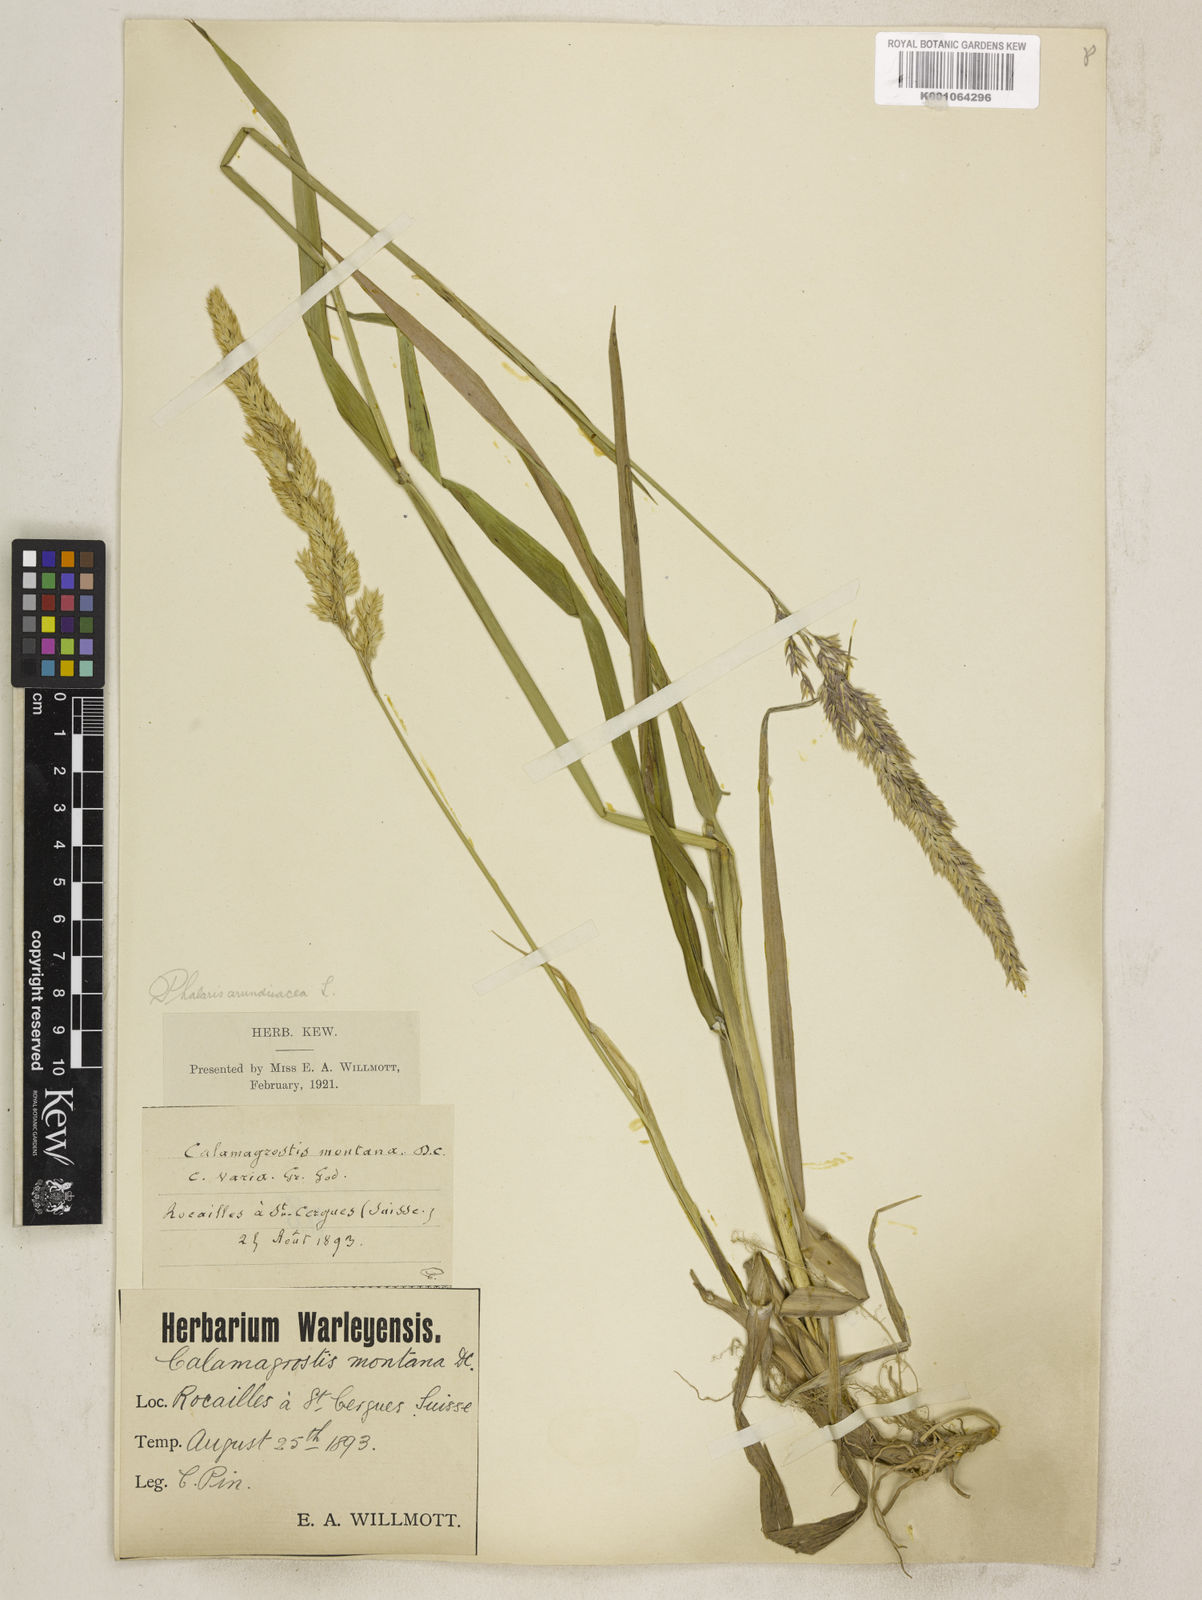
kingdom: Plantae
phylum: Tracheophyta
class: Liliopsida
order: Poales
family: Poaceae
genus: Phalaris
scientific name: Phalaris arundinacea
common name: Reed canary-grass
